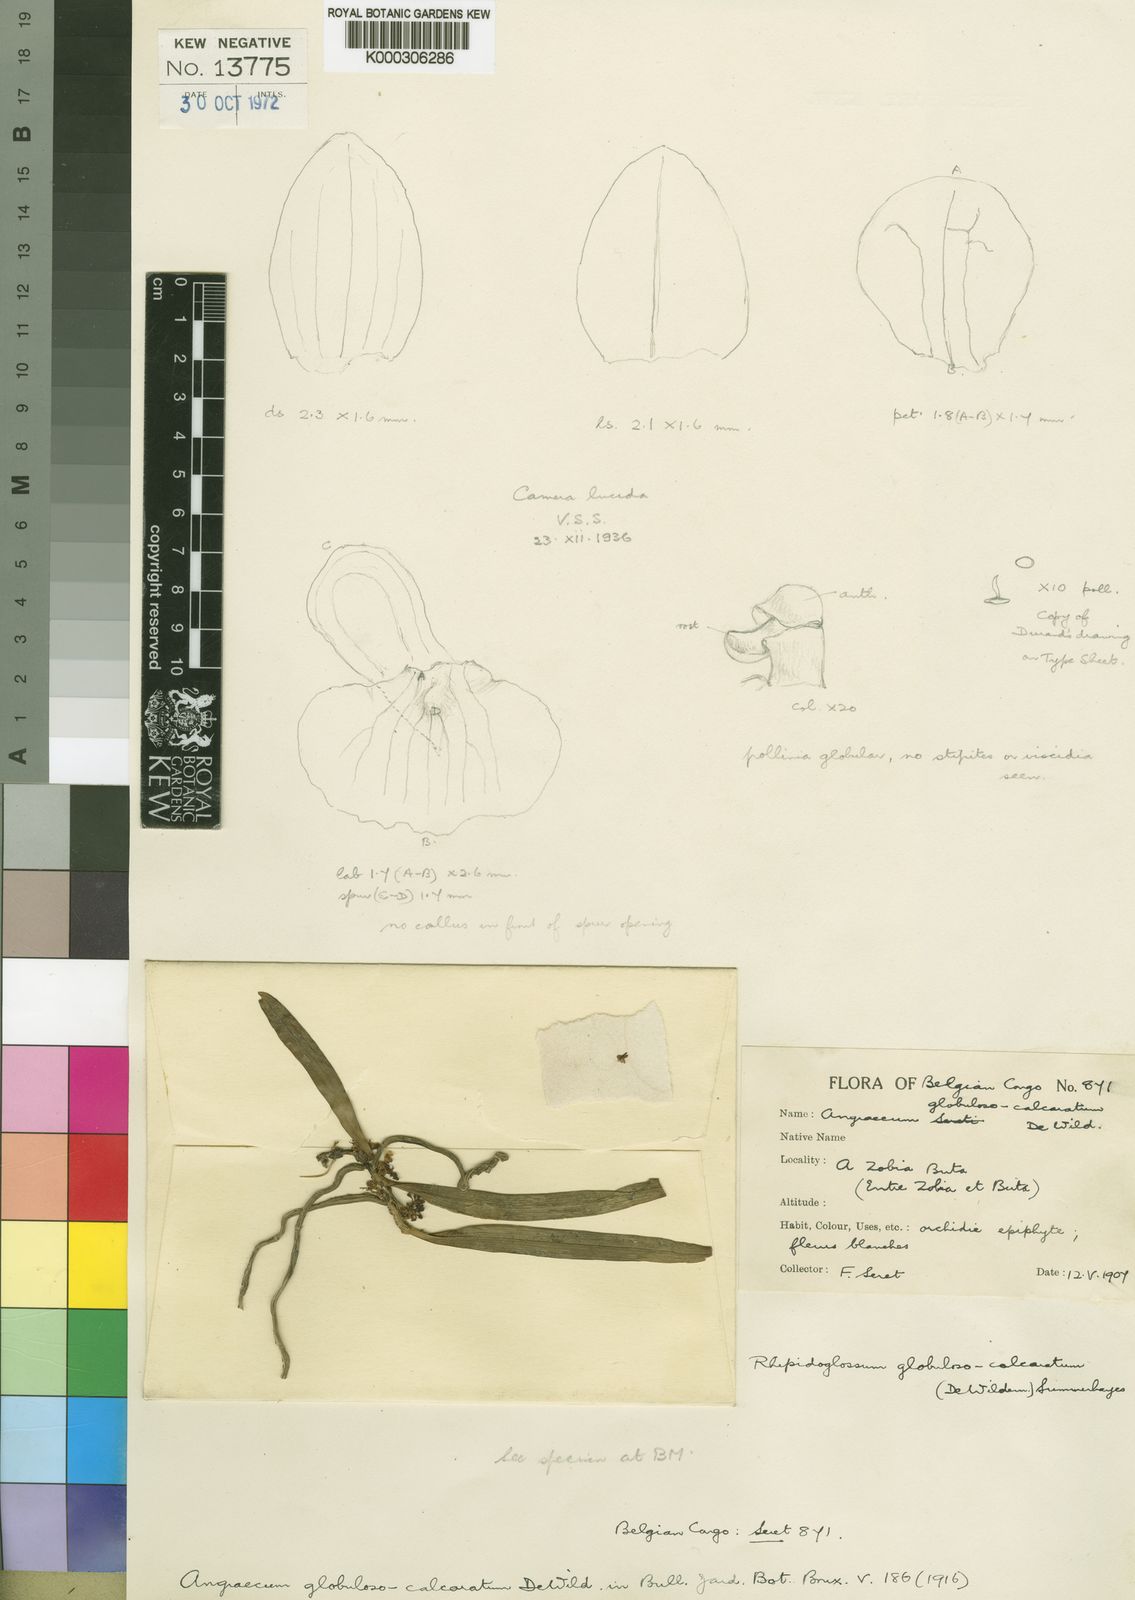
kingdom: Plantae
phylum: Tracheophyta
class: Liliopsida
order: Asparagales
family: Orchidaceae
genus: Rhipidoglossum
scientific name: Rhipidoglossum globulosocalcaratum
